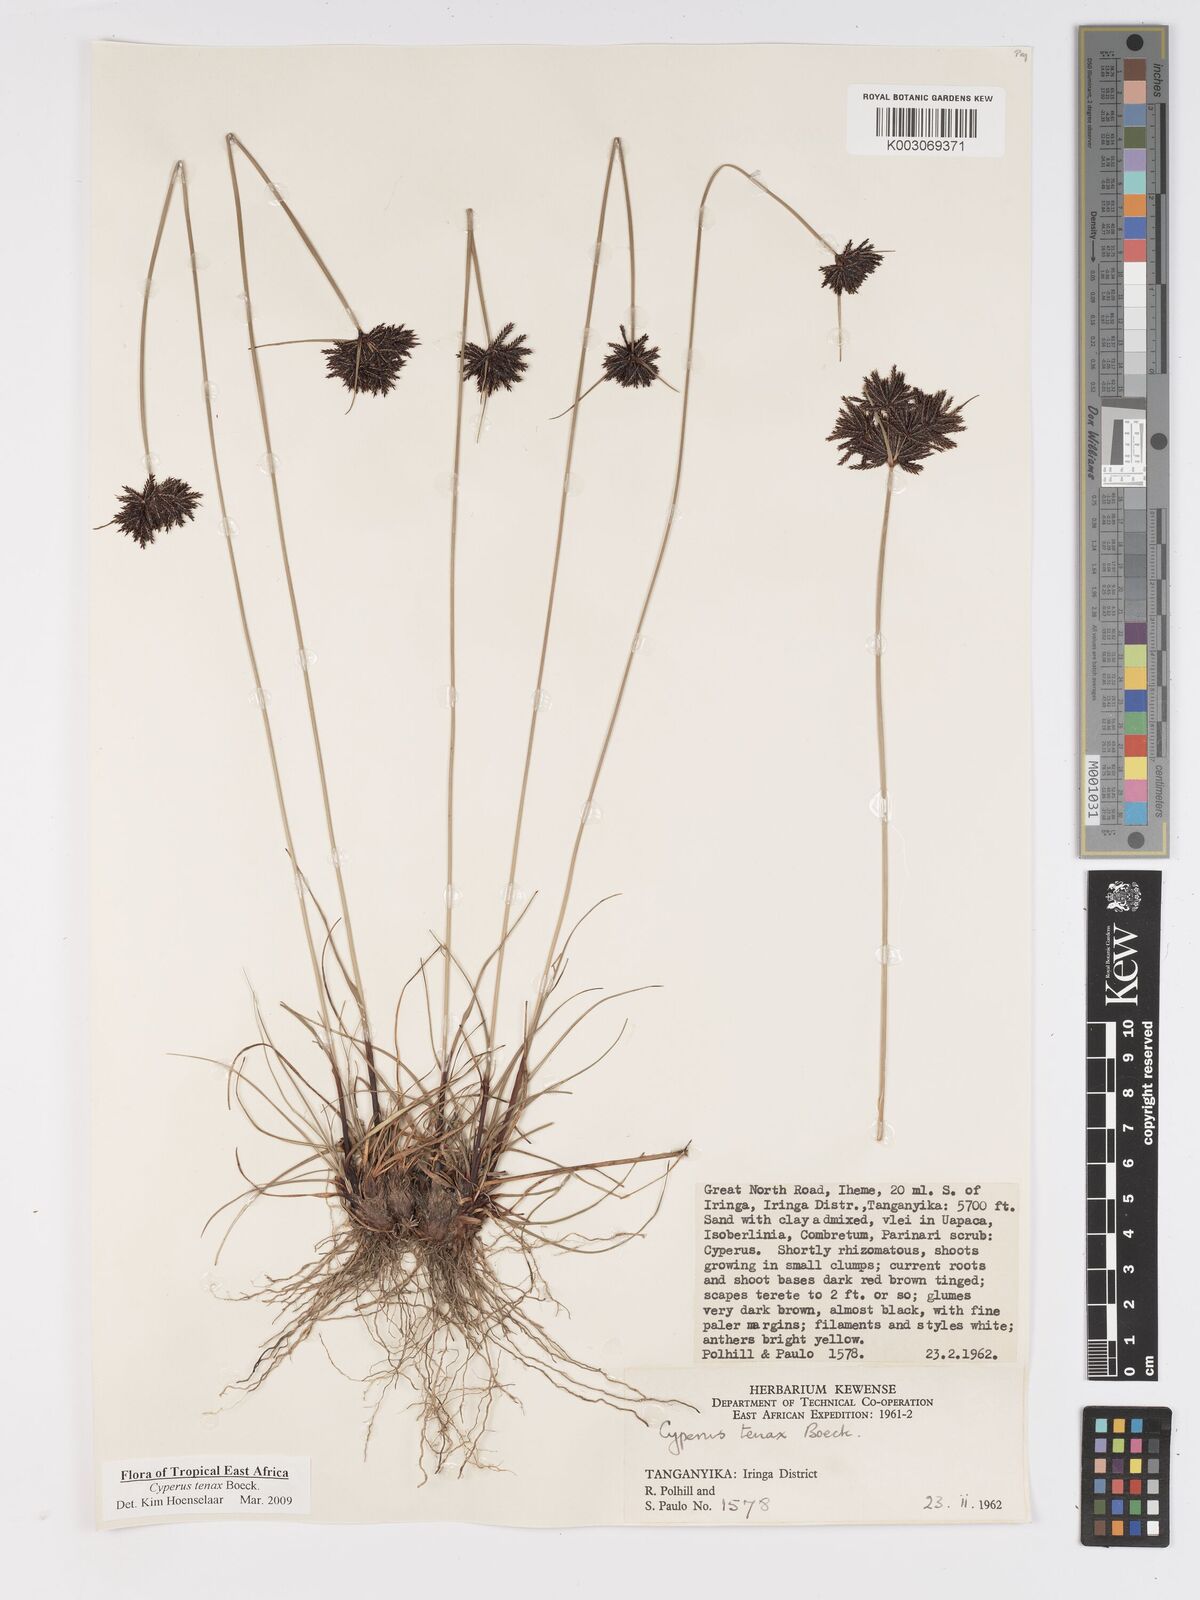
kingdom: Plantae
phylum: Tracheophyta
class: Liliopsida
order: Poales
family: Cyperaceae
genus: Cyperus
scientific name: Cyperus tenax
